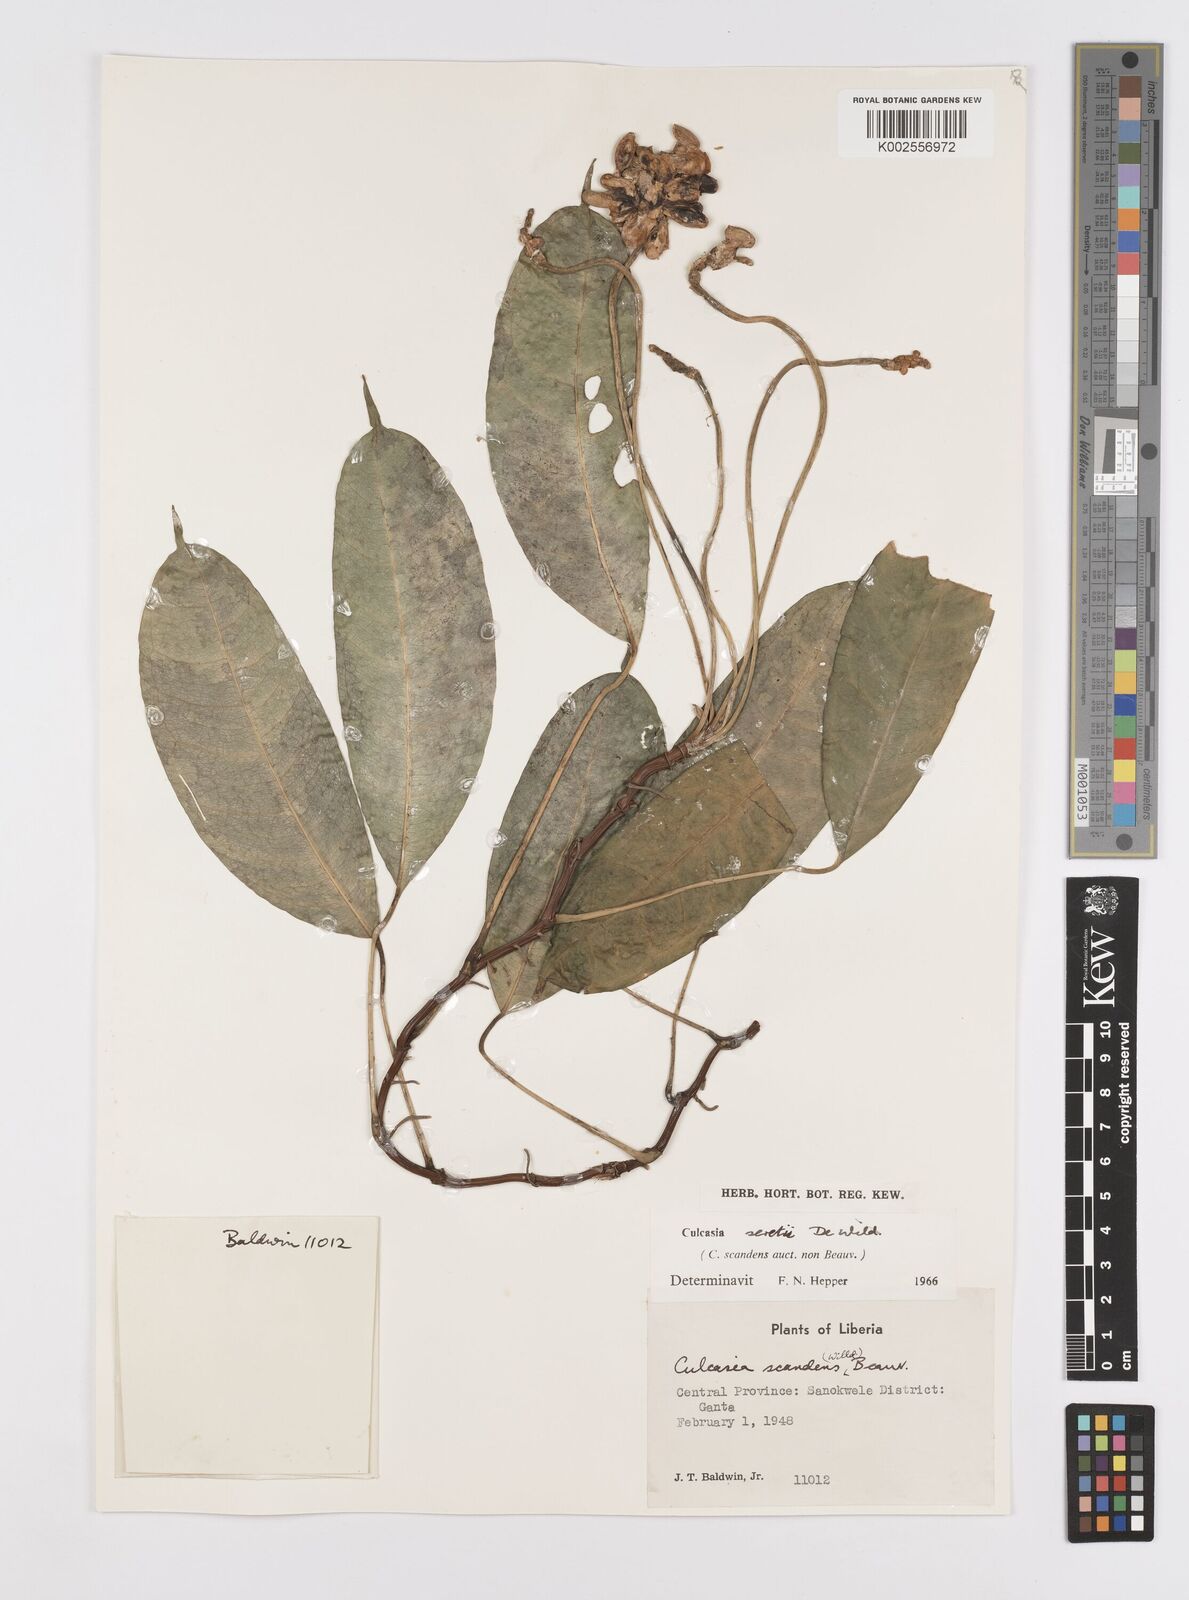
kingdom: Plantae
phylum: Tracheophyta
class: Liliopsida
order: Alismatales
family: Araceae
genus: Culcasia
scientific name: Culcasia seretii
